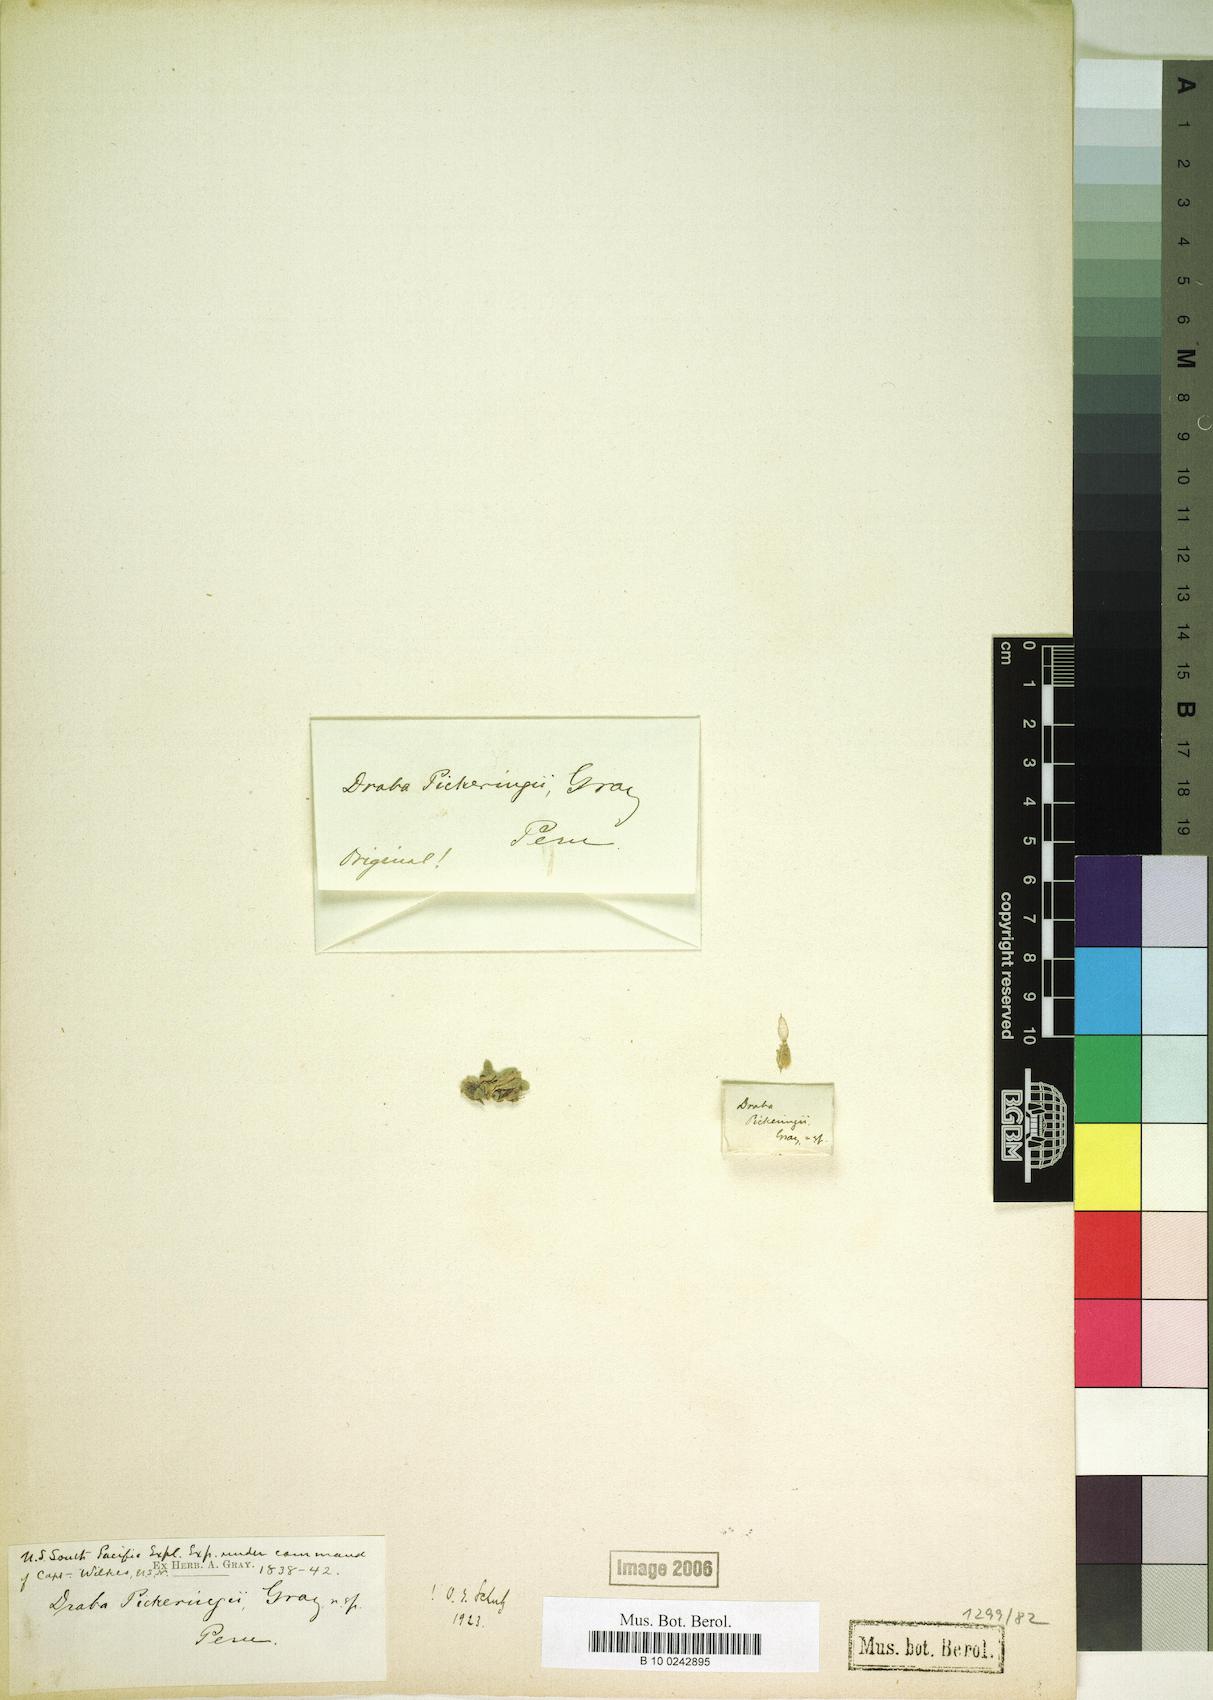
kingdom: Plantae
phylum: Tracheophyta
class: Magnoliopsida
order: Brassicales
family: Brassicaceae
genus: Draba
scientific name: Draba pickeringii
